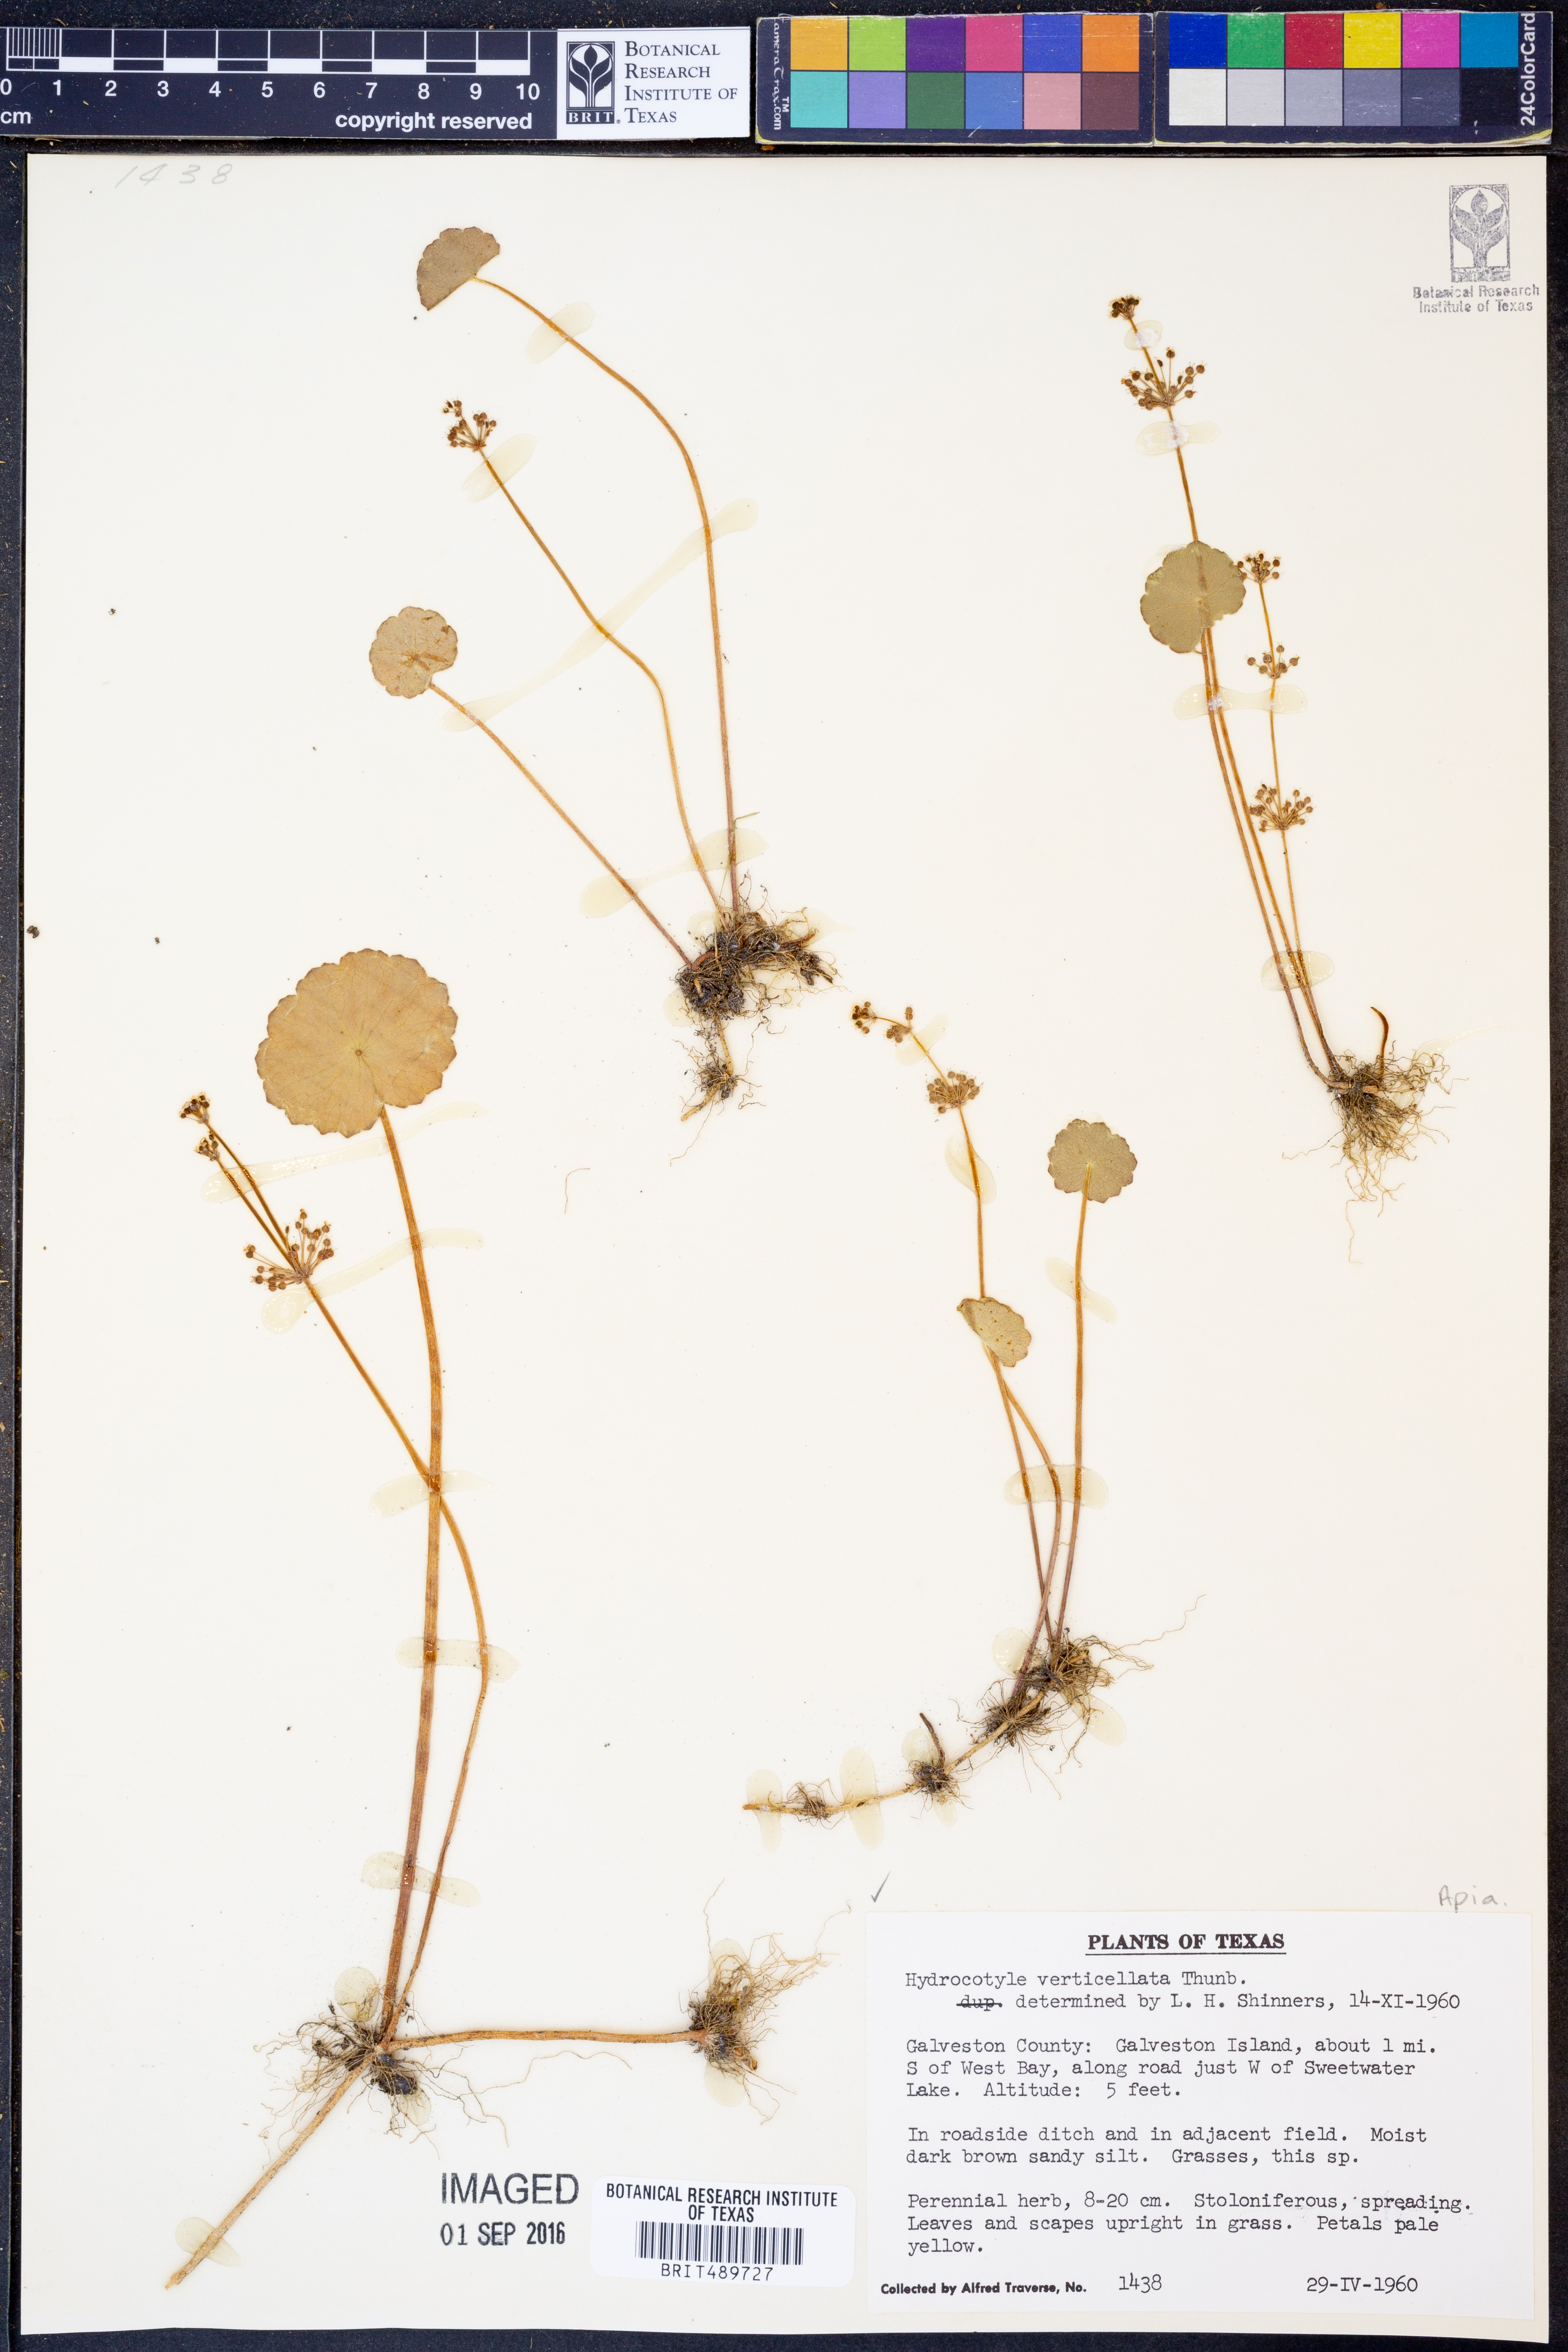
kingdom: Plantae
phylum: Tracheophyta
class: Magnoliopsida
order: Apiales
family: Araliaceae
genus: Hydrocotyle
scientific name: Hydrocotyle verticillata
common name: Whorled marshpennywort
